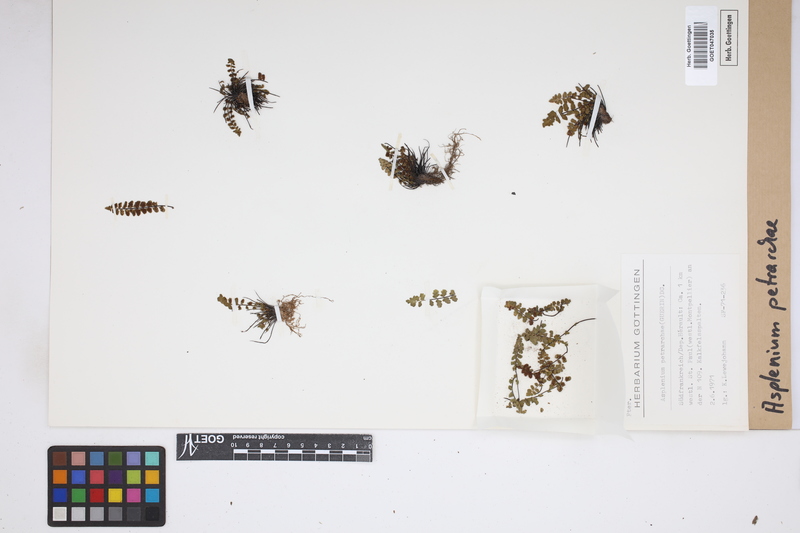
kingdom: Plantae
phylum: Tracheophyta
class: Polypodiopsida
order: Polypodiales
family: Aspleniaceae
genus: Asplenium
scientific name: Asplenium petrarchae
